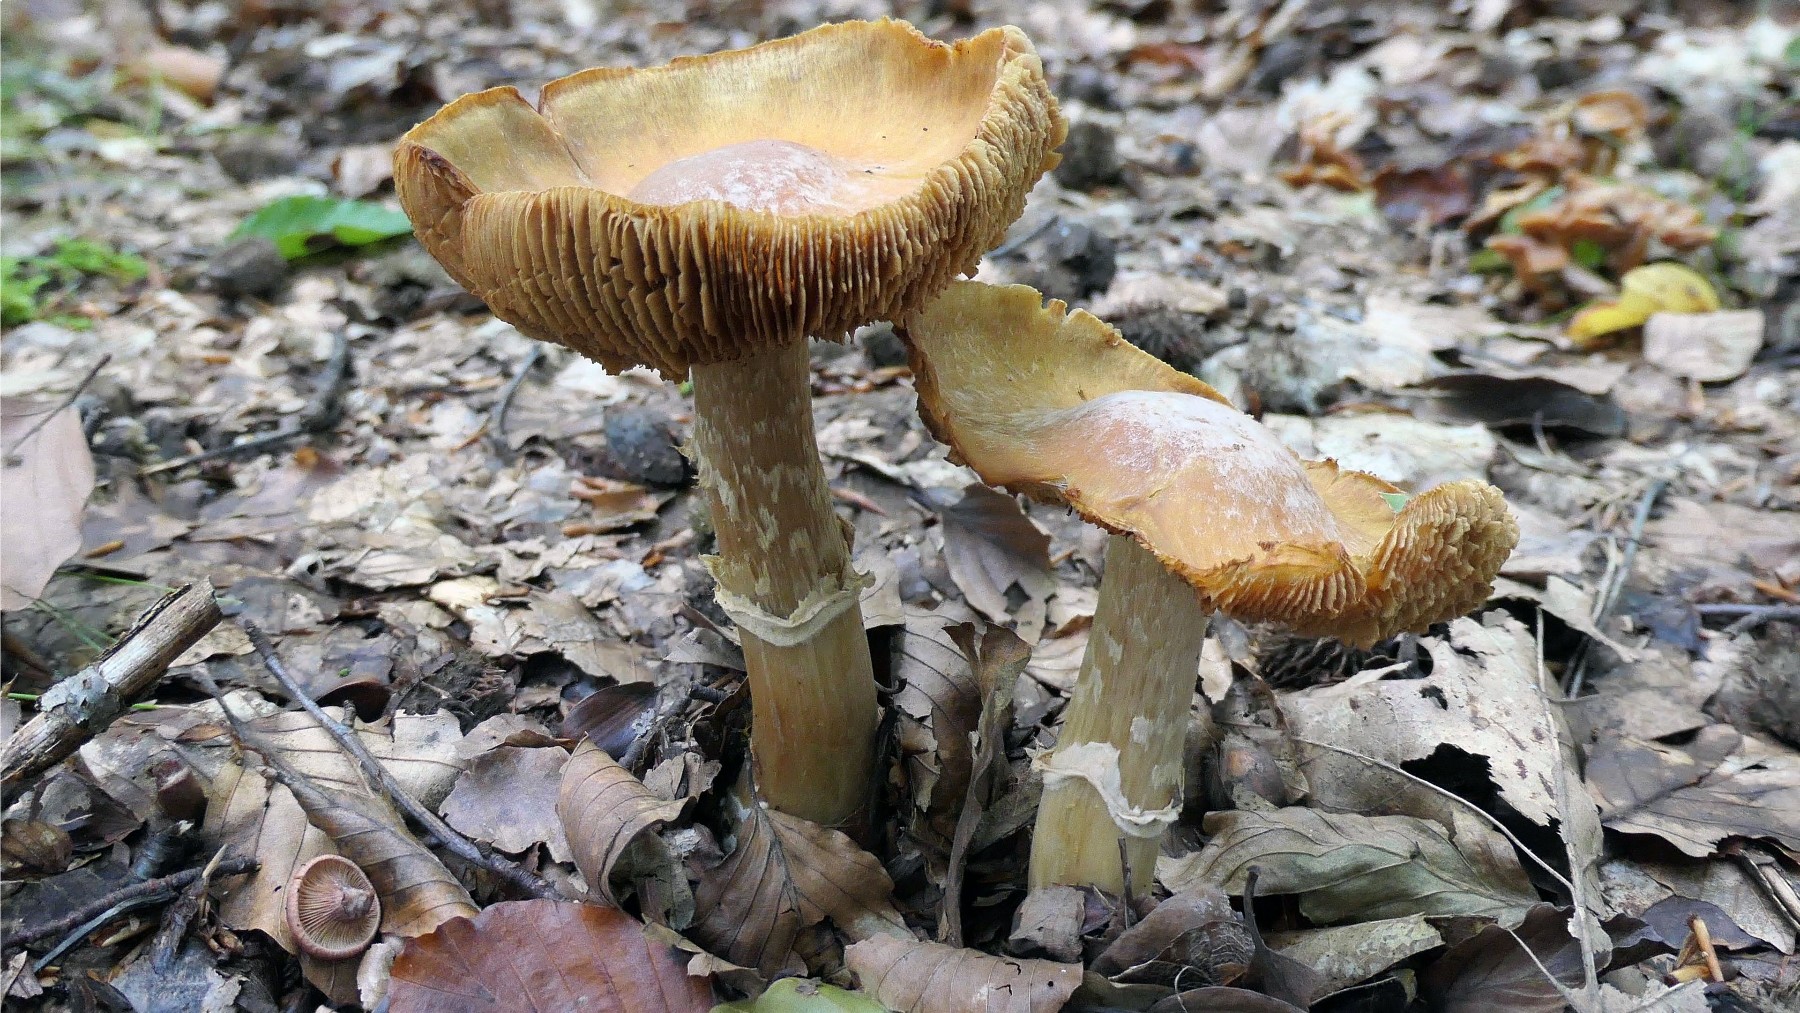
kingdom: Fungi
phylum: Basidiomycota
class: Agaricomycetes
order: Agaricales
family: Cortinariaceae
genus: Cortinarius
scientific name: Cortinarius caperatus
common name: klidhat
